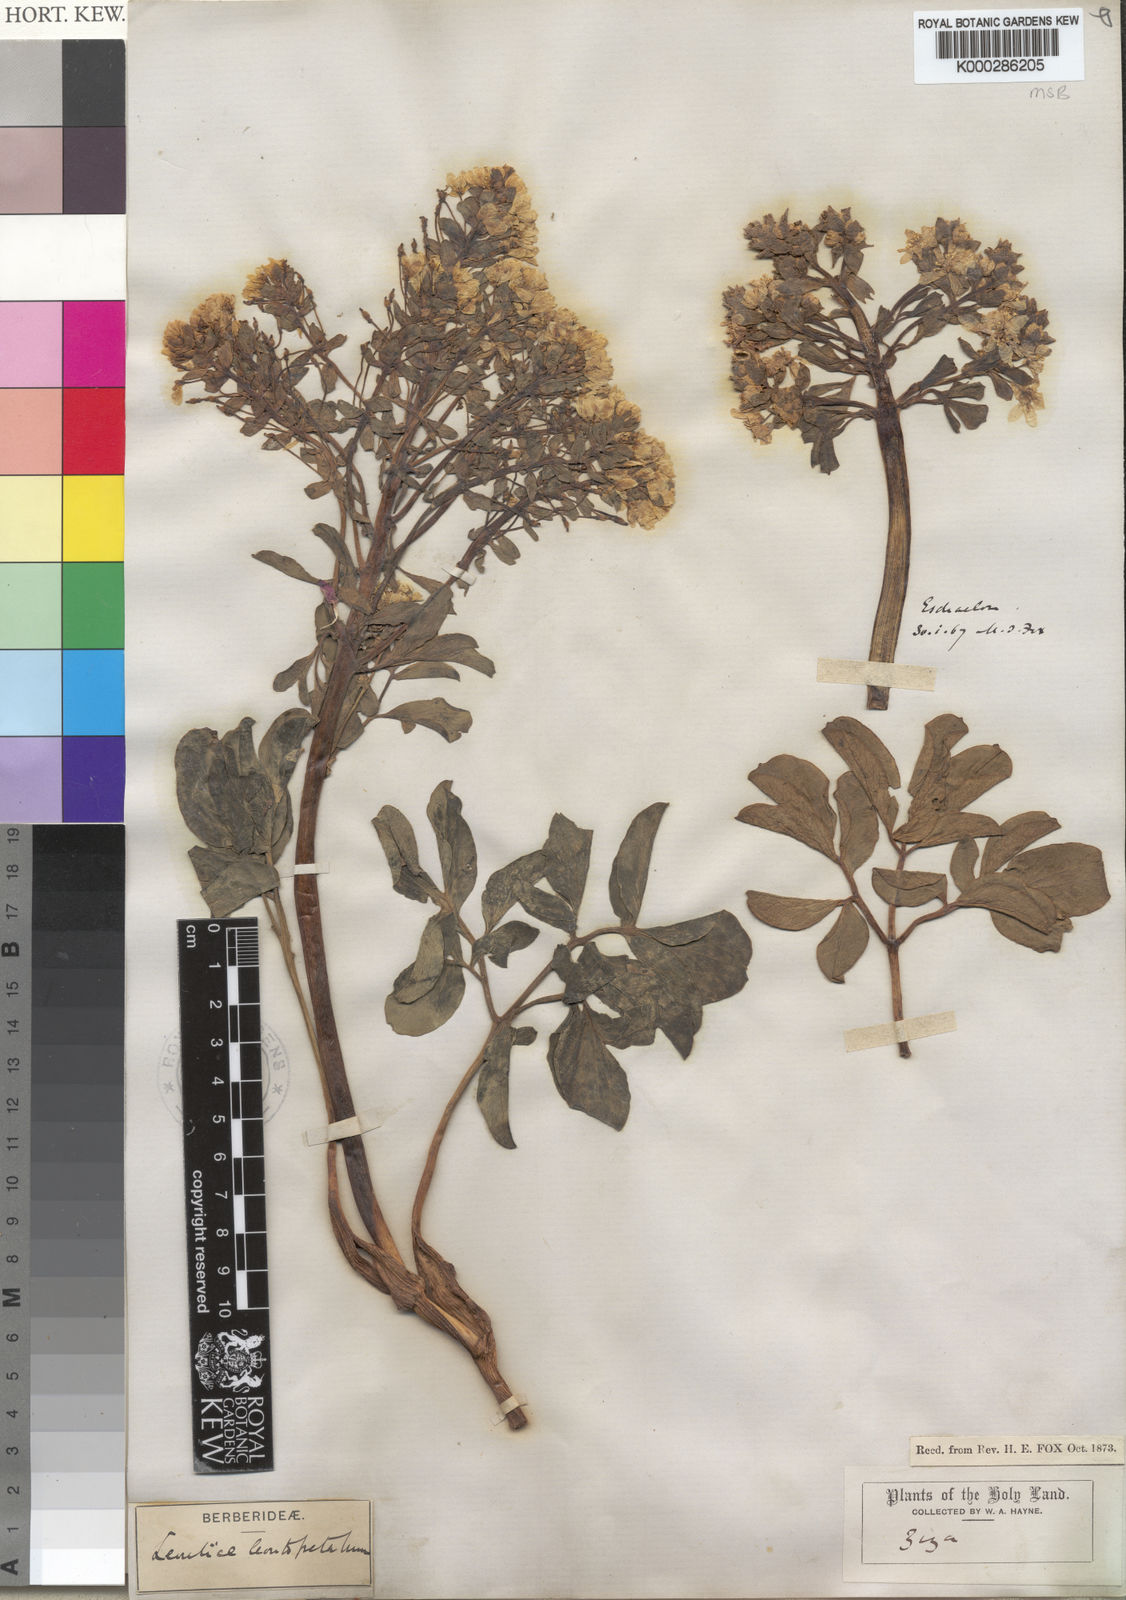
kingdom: Plantae
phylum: Tracheophyta
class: Magnoliopsida
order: Ranunculales
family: Berberidaceae
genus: Leontice
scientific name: Leontice leontopetalum
